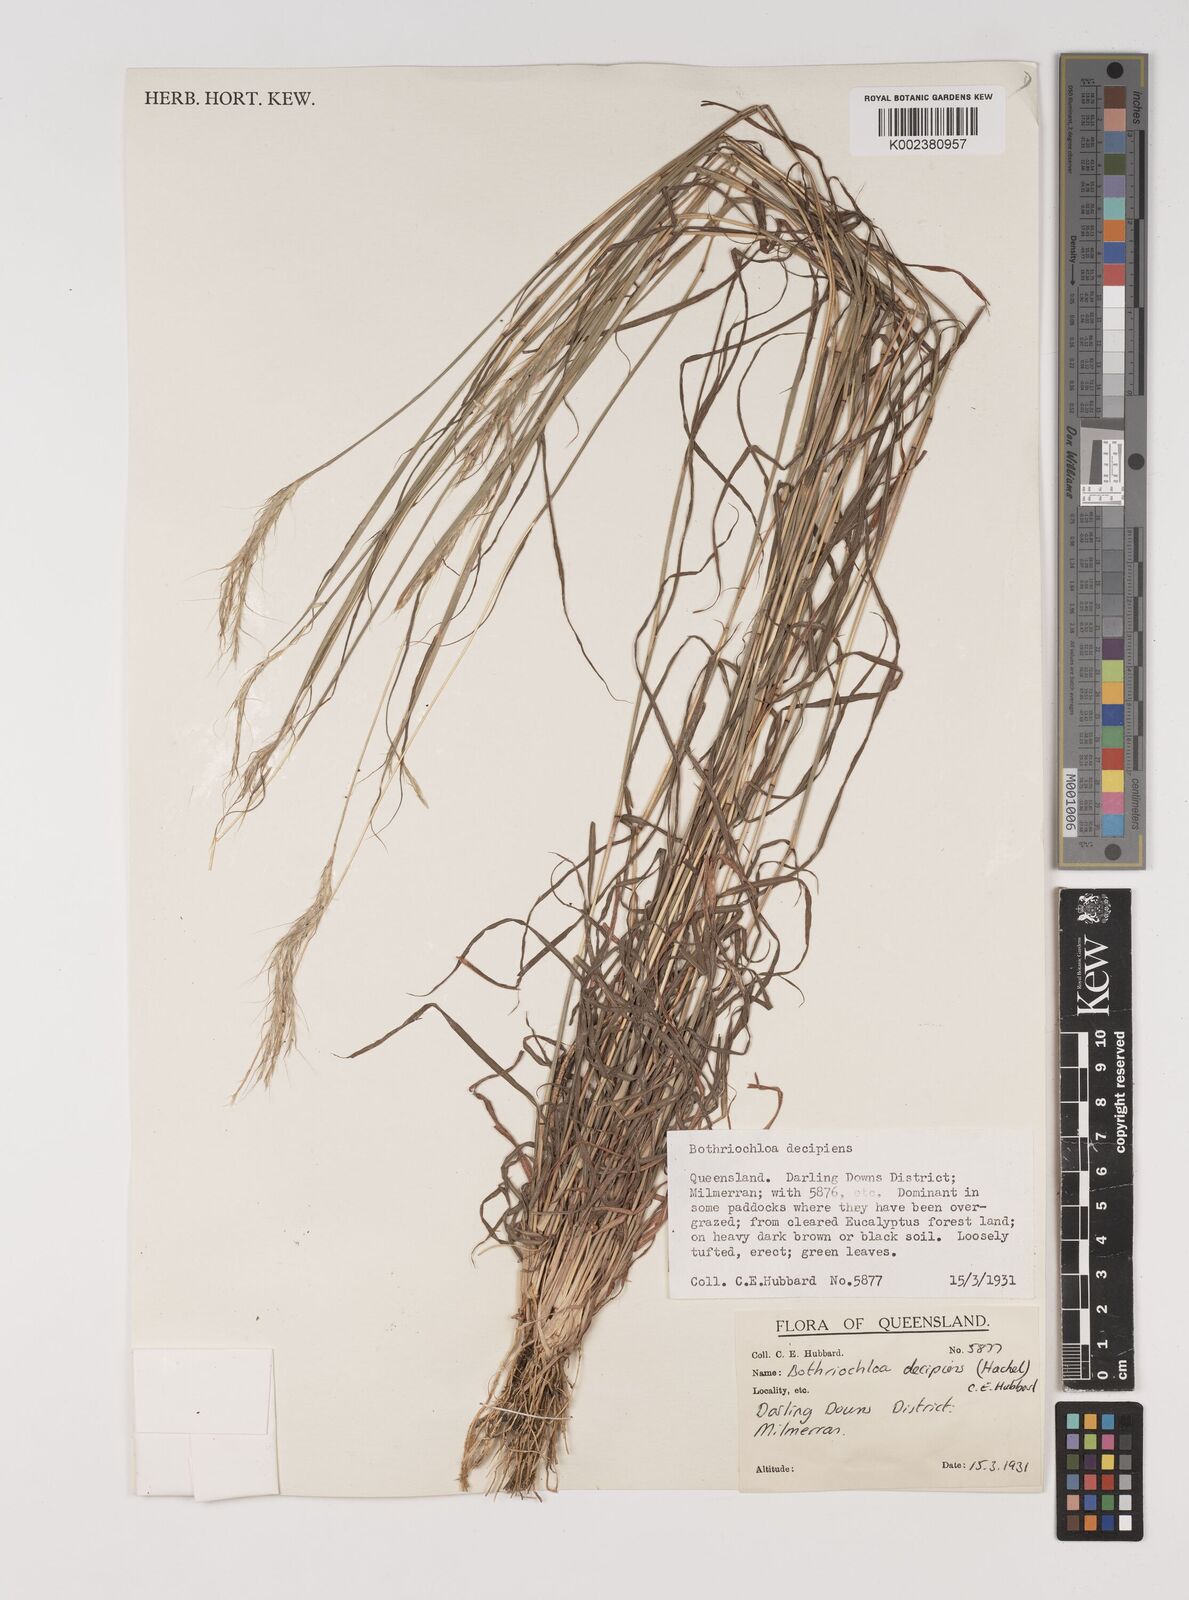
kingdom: Plantae
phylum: Tracheophyta
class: Liliopsida
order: Poales
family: Poaceae
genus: Bothriochloa
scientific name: Bothriochloa decipiens
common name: Pitted-bluegrass
